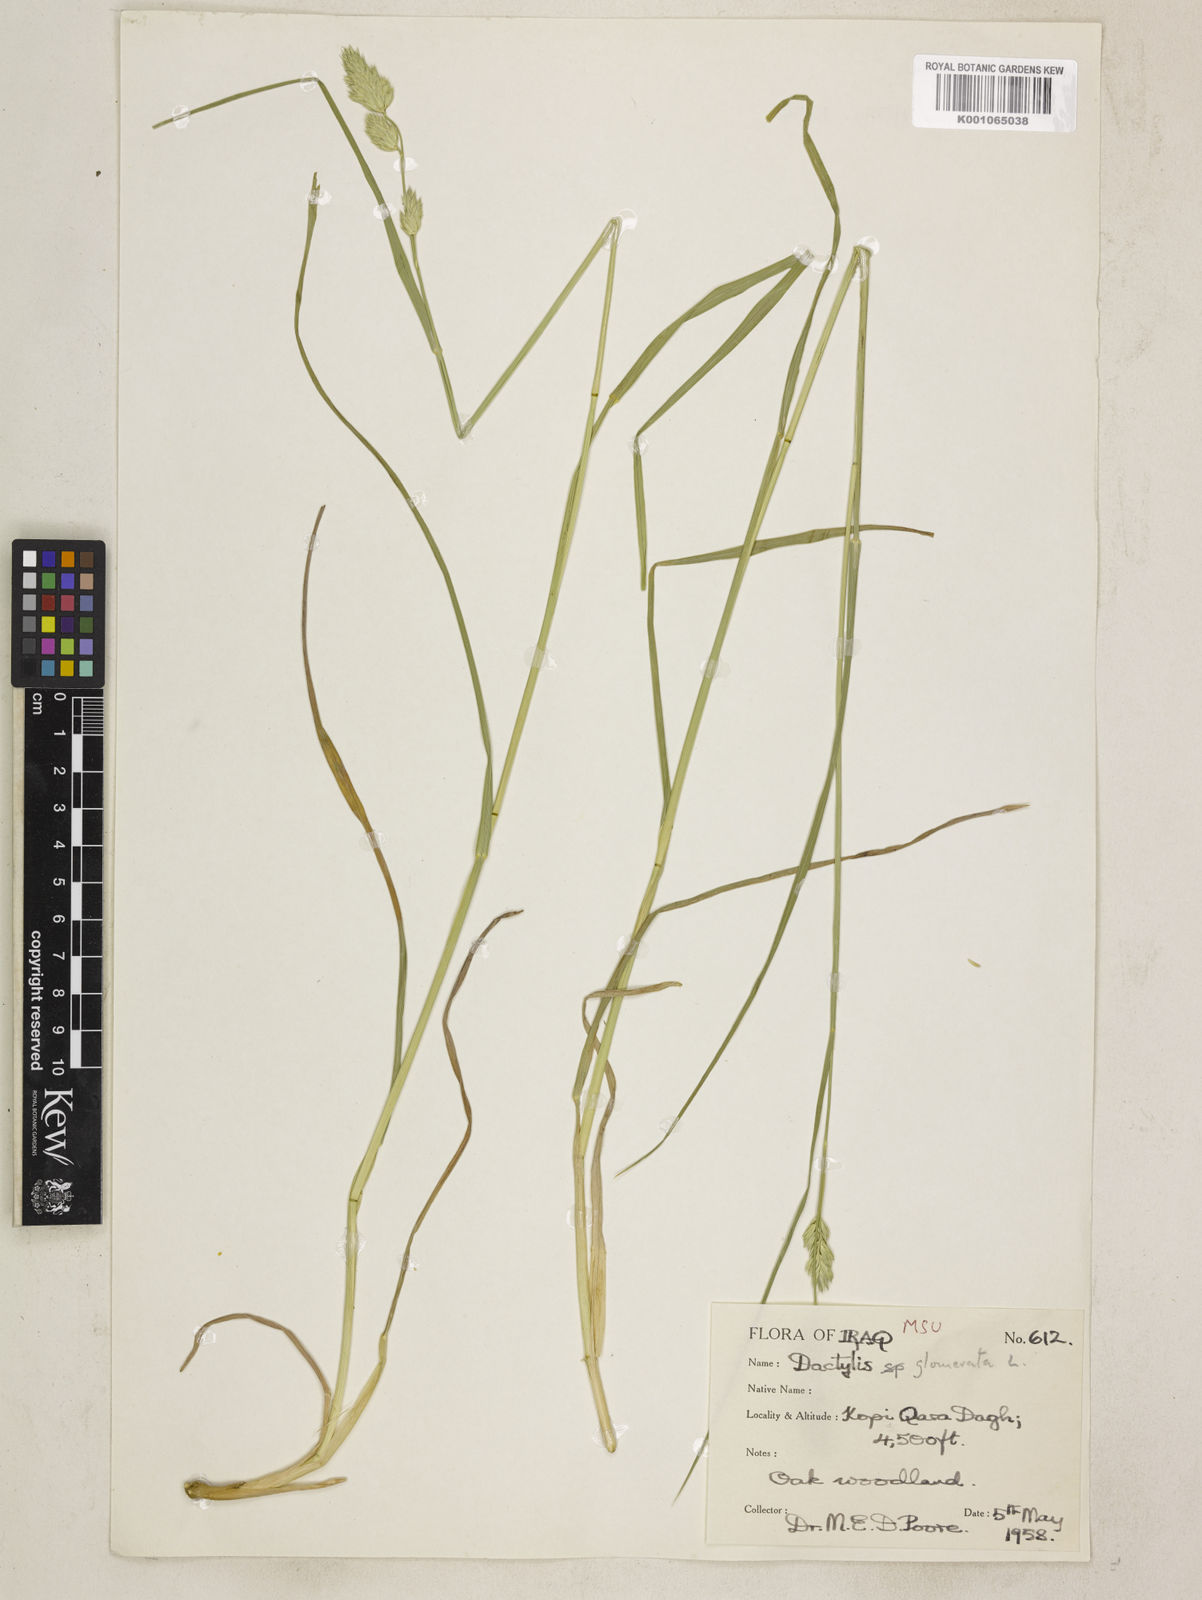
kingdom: Plantae
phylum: Tracheophyta
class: Liliopsida
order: Poales
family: Poaceae
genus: Dactylis
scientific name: Dactylis glomerata
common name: Orchardgrass
